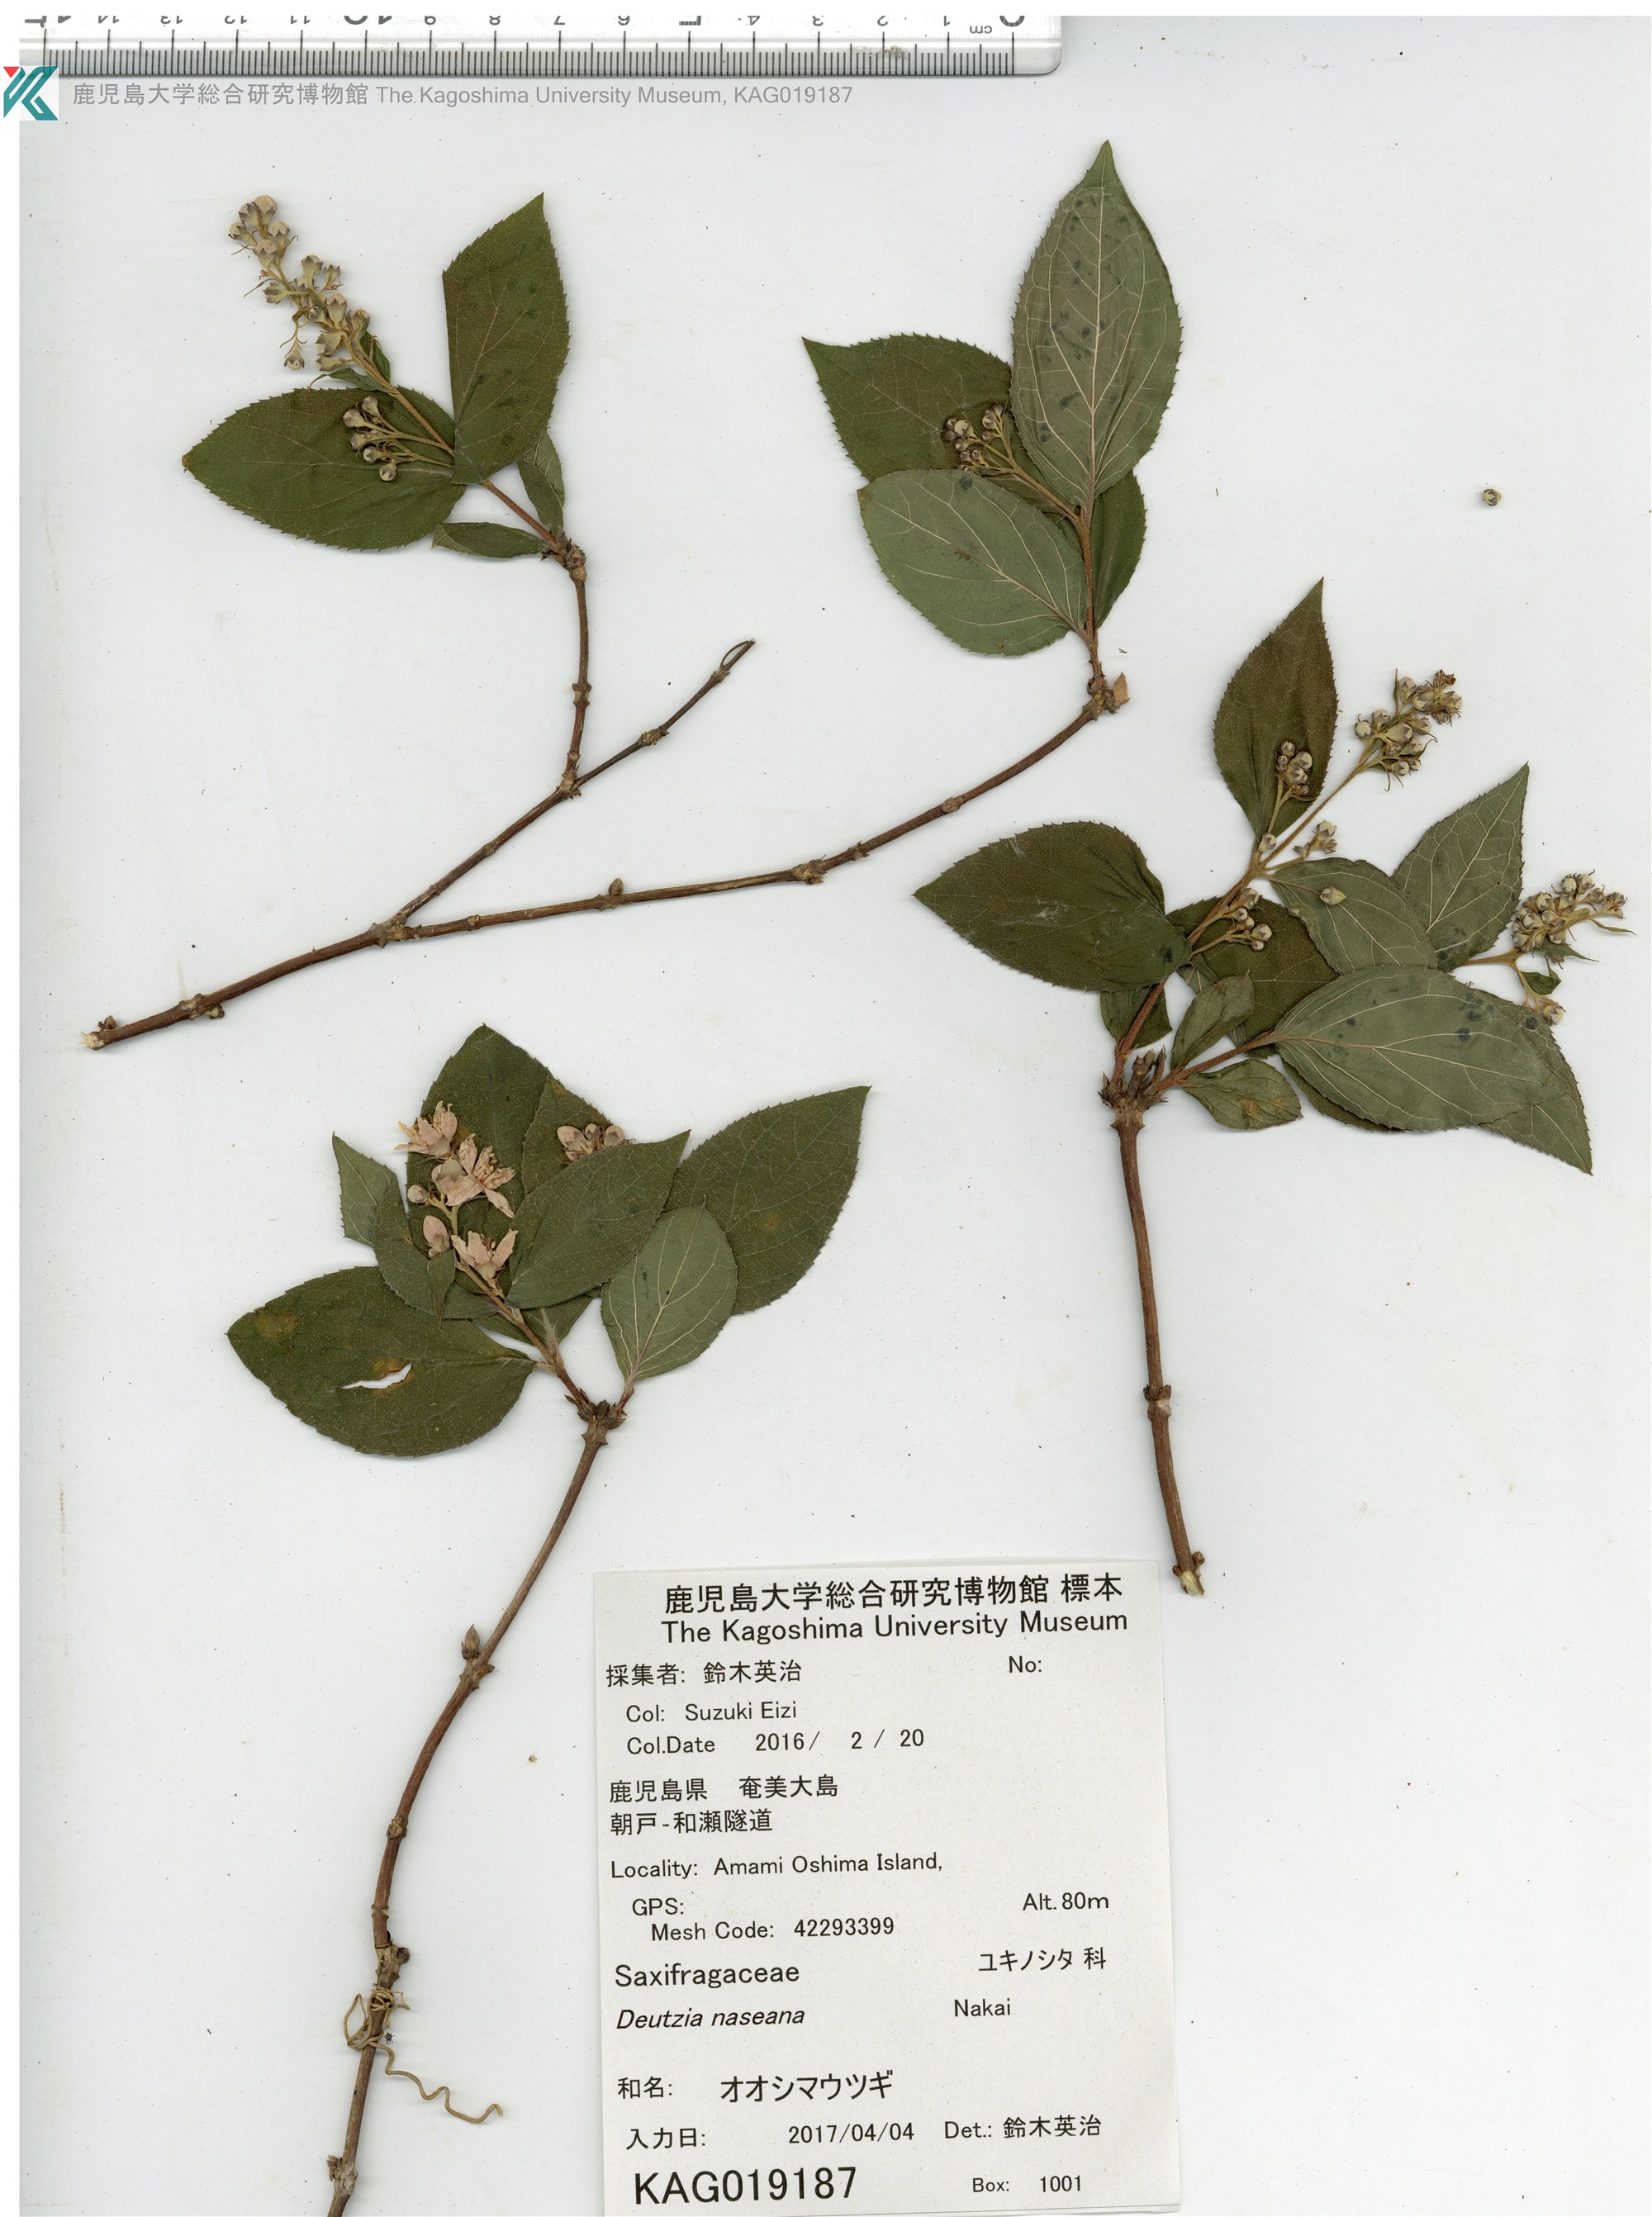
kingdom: Plantae
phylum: Tracheophyta
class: Magnoliopsida
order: Cornales
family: Hydrangeaceae
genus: Deutzia
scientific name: Deutzia naseana
